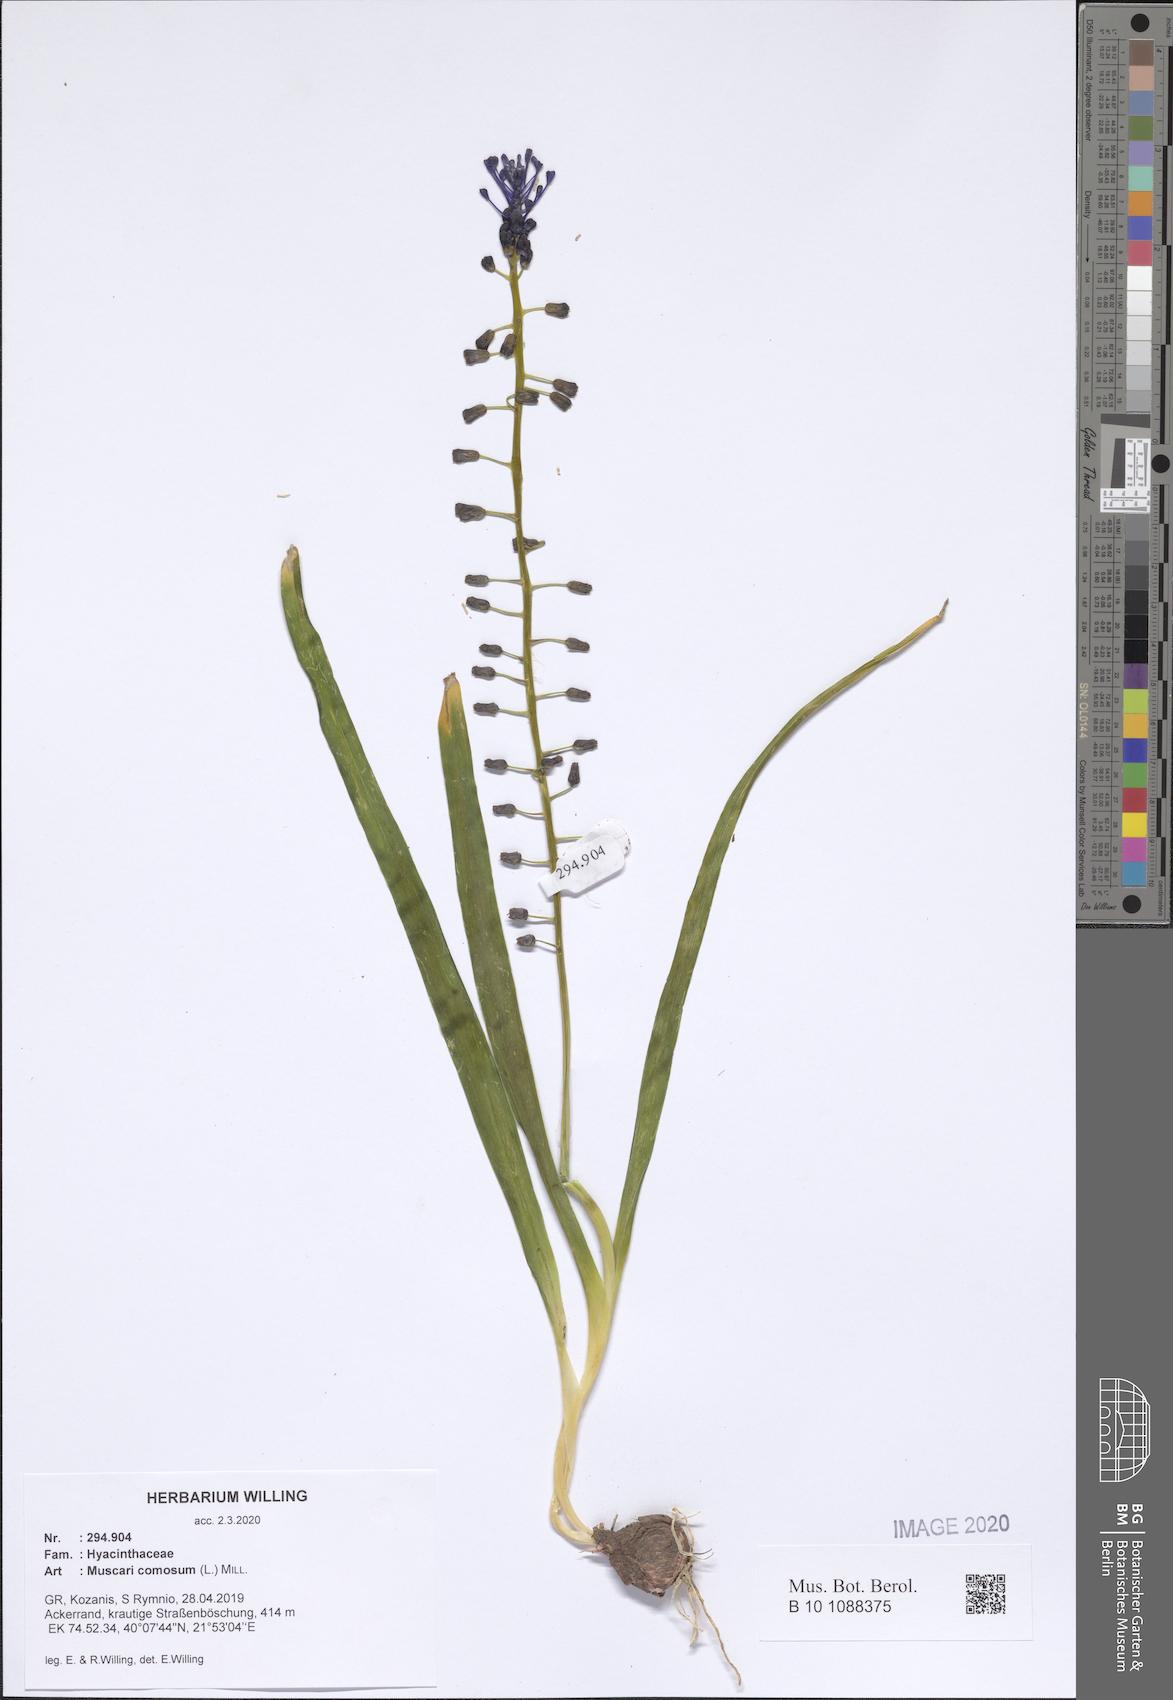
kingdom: Plantae
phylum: Tracheophyta
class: Liliopsida
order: Asparagales
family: Asparagaceae
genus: Muscari
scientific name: Muscari comosum
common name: Tassel hyacinth
